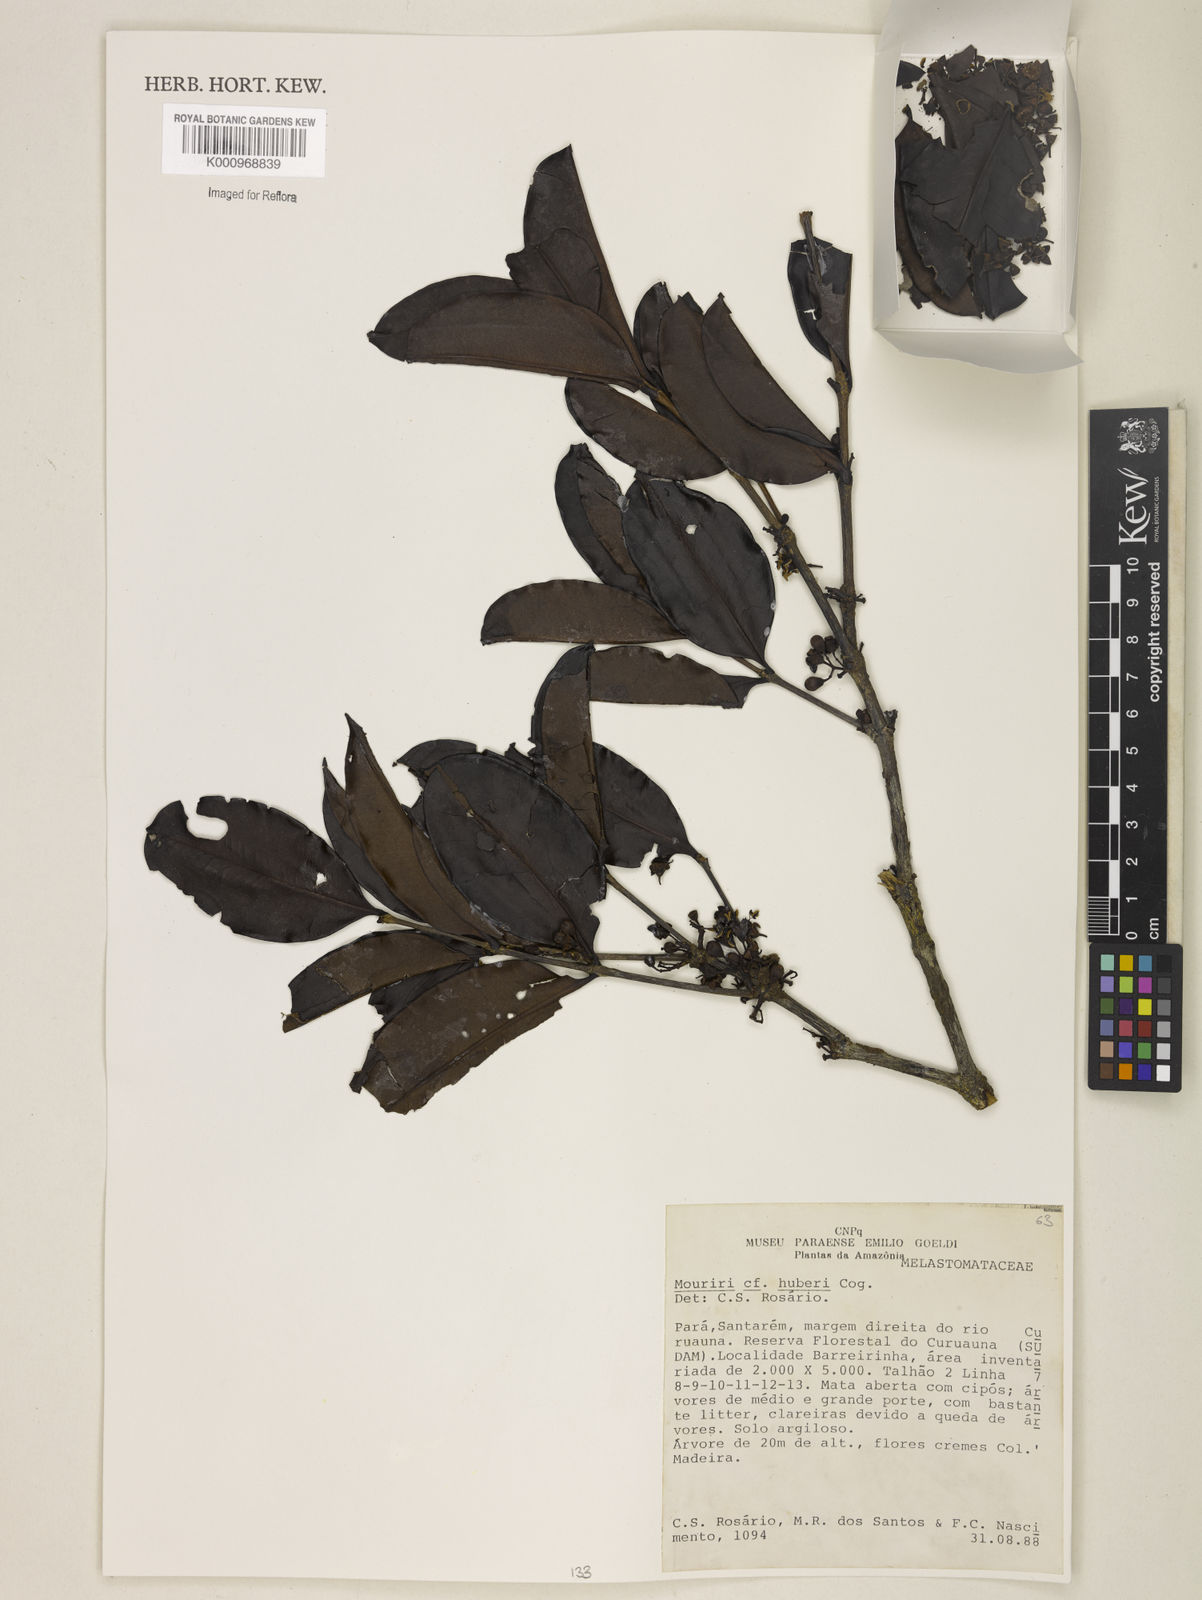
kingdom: Plantae
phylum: Tracheophyta
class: Magnoliopsida
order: Myrtales
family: Melastomataceae
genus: Mouriri
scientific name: Mouriri huberi
